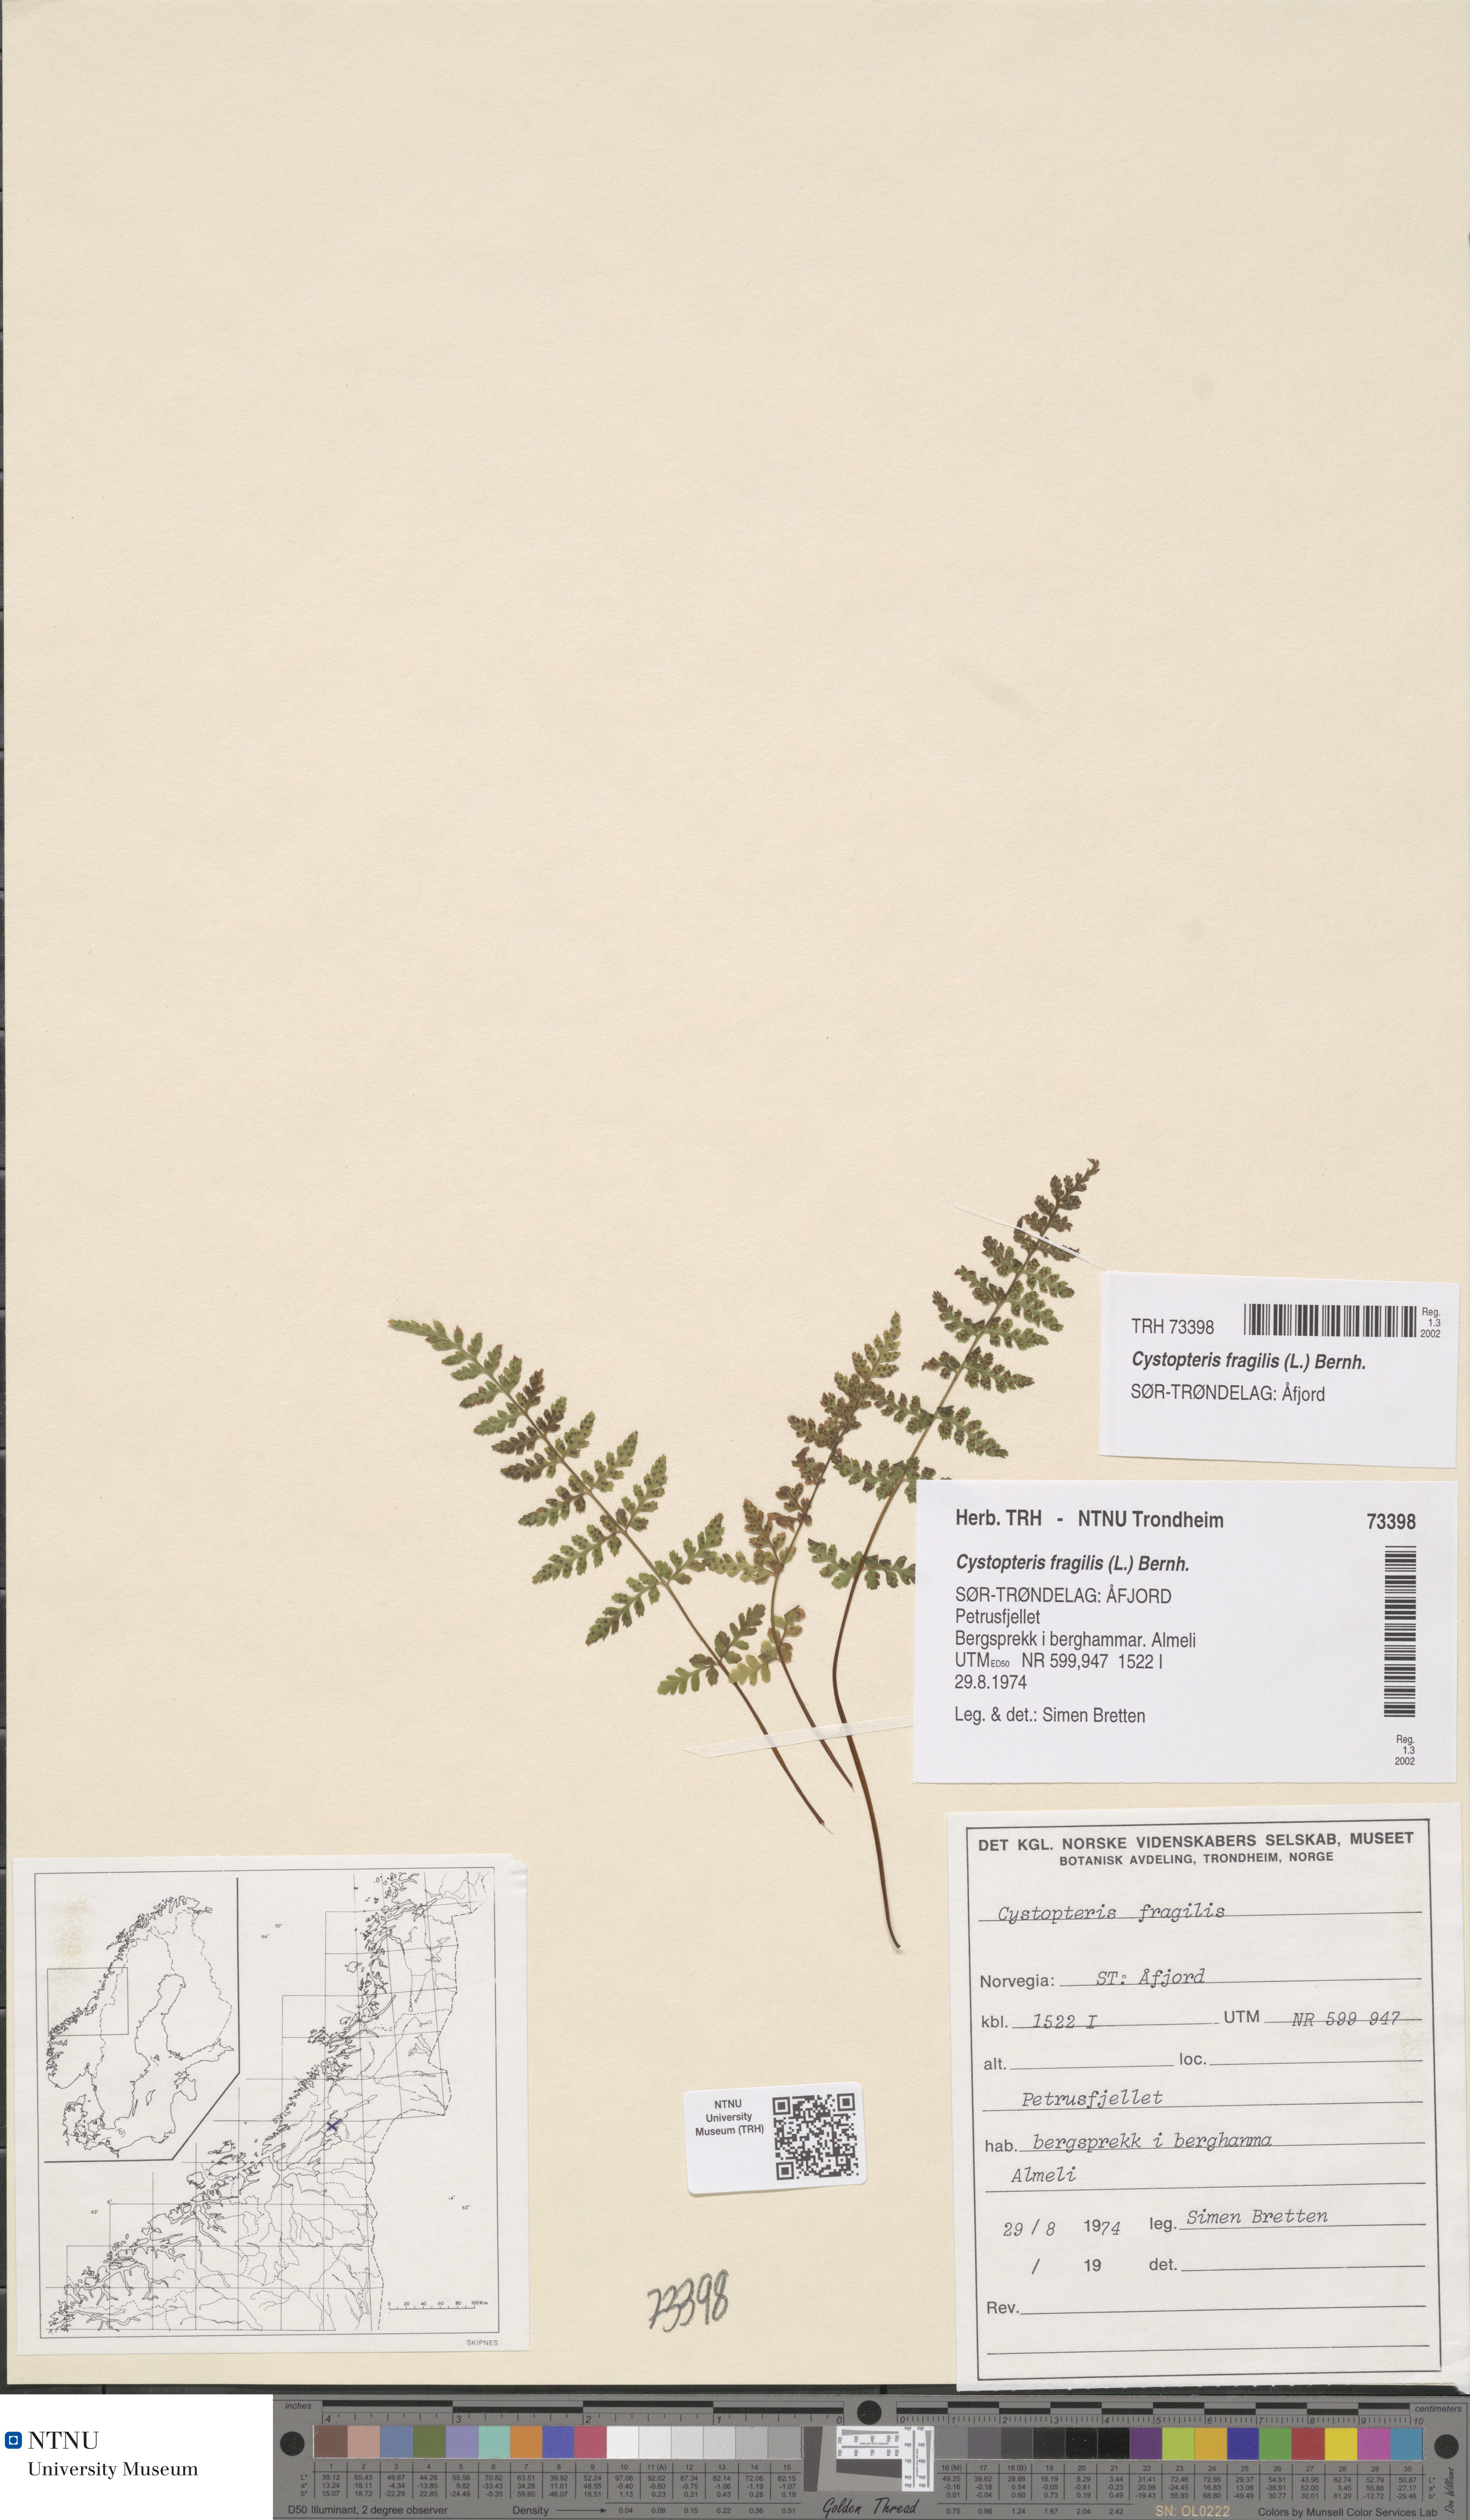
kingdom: Plantae
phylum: Tracheophyta
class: Polypodiopsida
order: Polypodiales
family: Cystopteridaceae
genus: Cystopteris
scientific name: Cystopteris fragilis
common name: Brittle bladder fern
